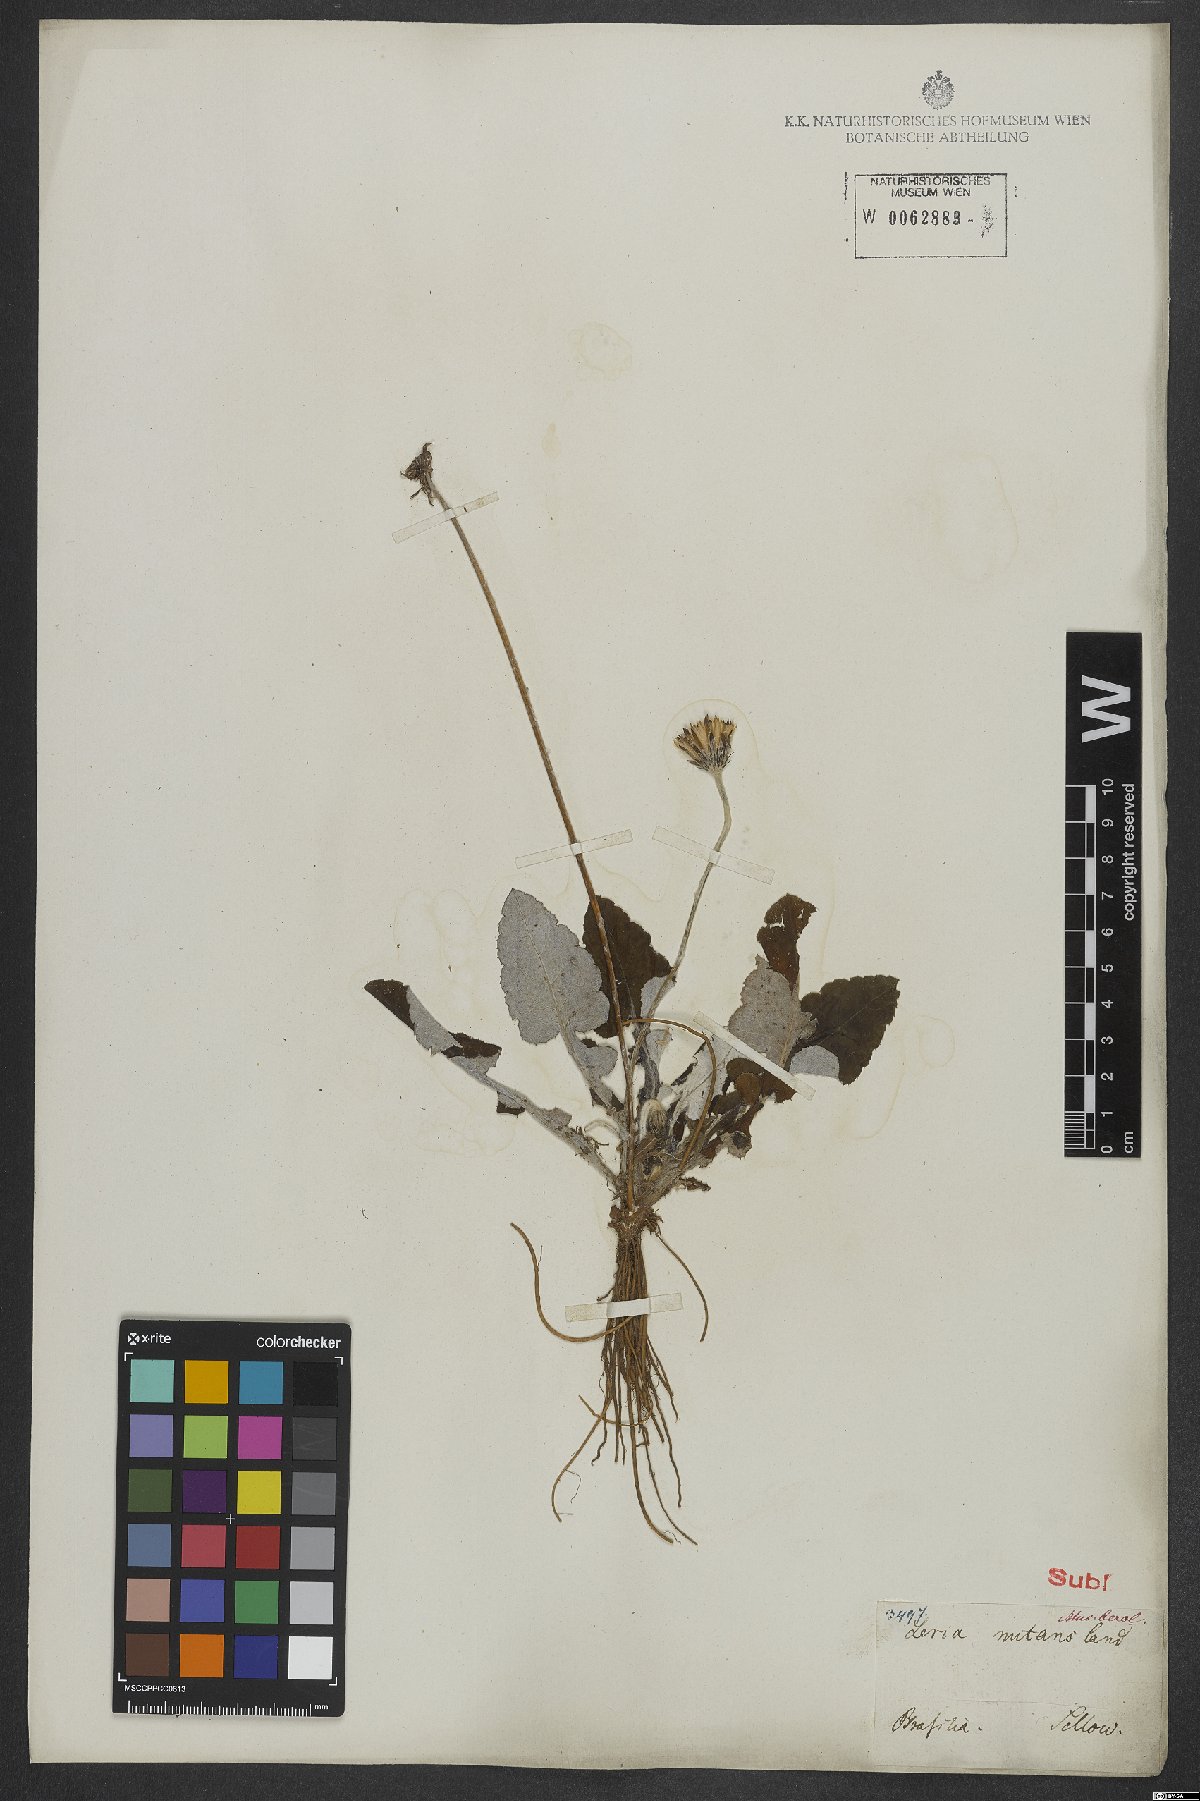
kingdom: Plantae
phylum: Tracheophyta
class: Magnoliopsida
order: Asterales
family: Asteraceae
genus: Chaptalia
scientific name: Chaptalia nutans
